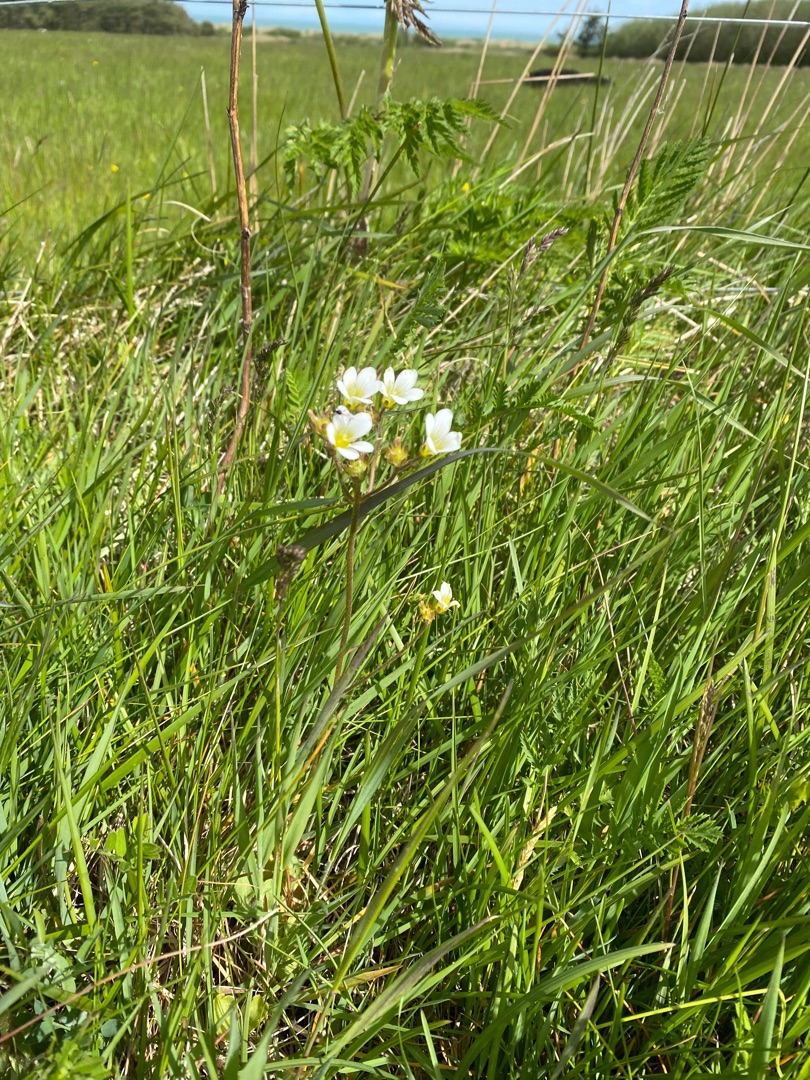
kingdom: Plantae
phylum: Tracheophyta
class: Magnoliopsida
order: Saxifragales
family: Saxifragaceae
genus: Saxifraga
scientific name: Saxifraga granulata
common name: Kornet stenbræk
